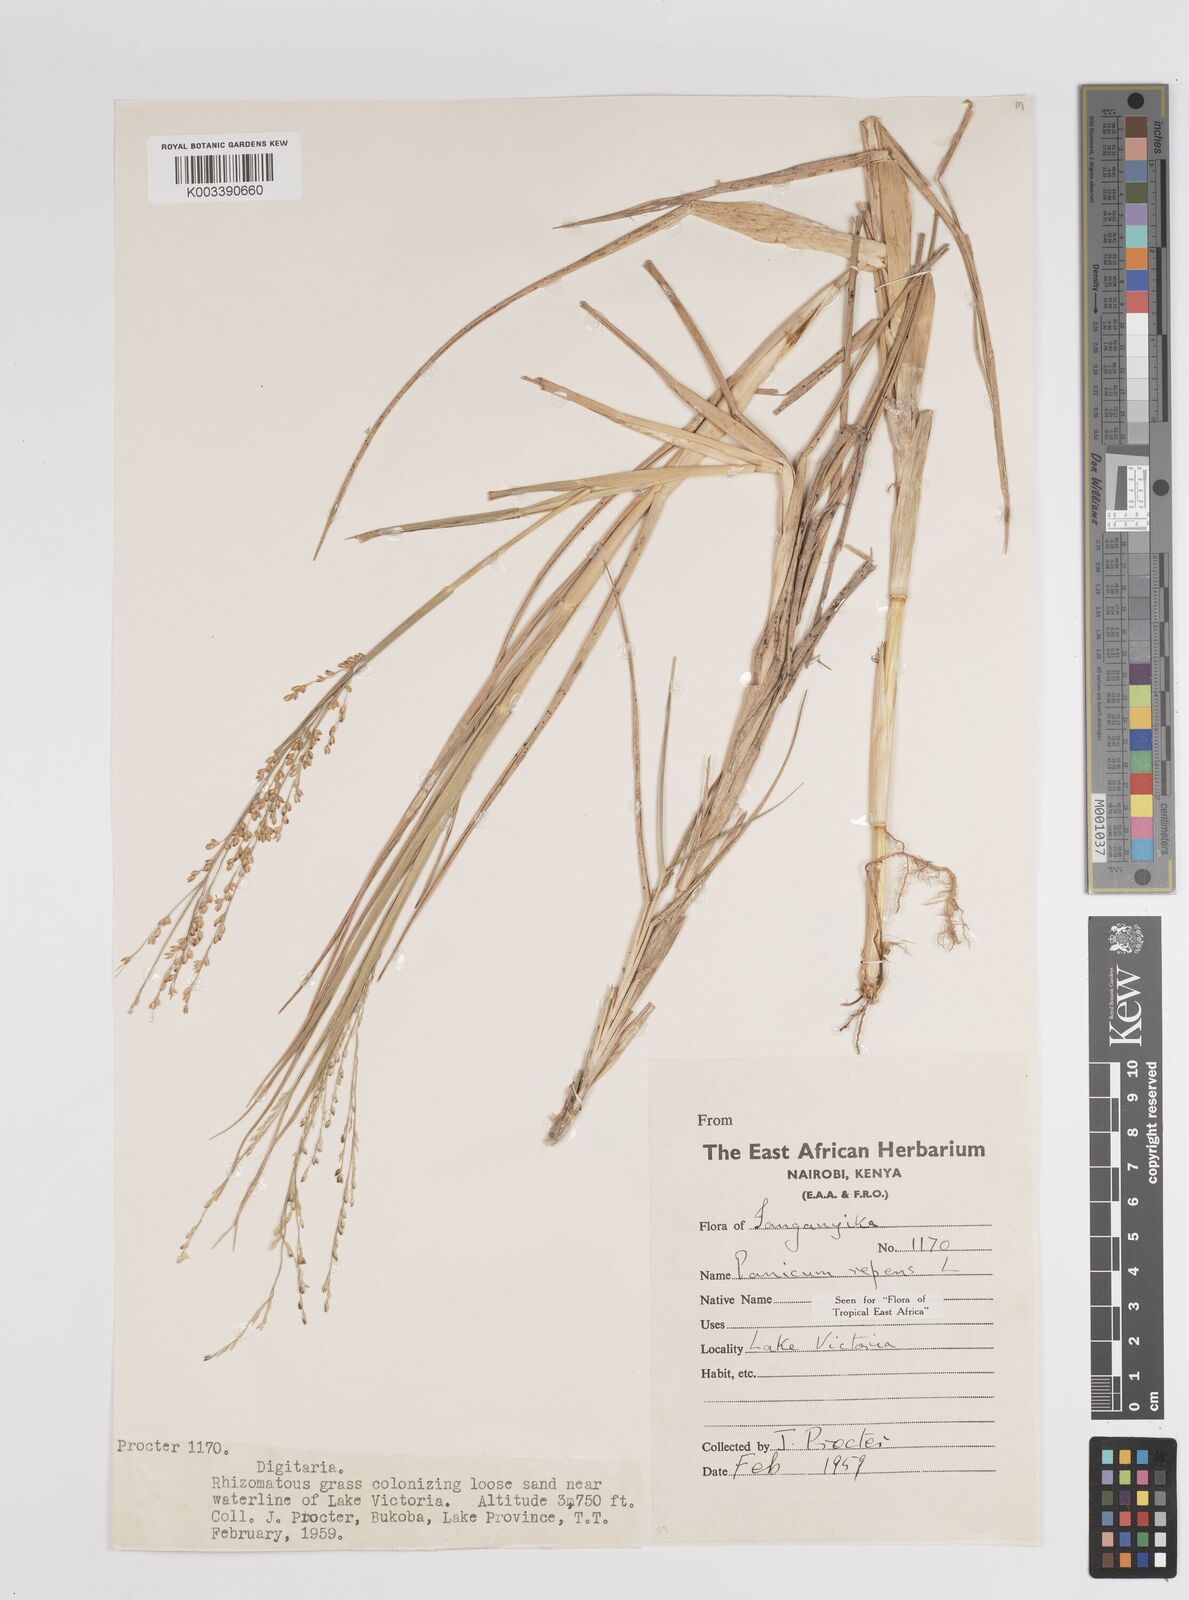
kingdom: Plantae
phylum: Tracheophyta
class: Liliopsida
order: Poales
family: Poaceae
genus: Panicum
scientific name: Panicum repens
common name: Torpedo grass
